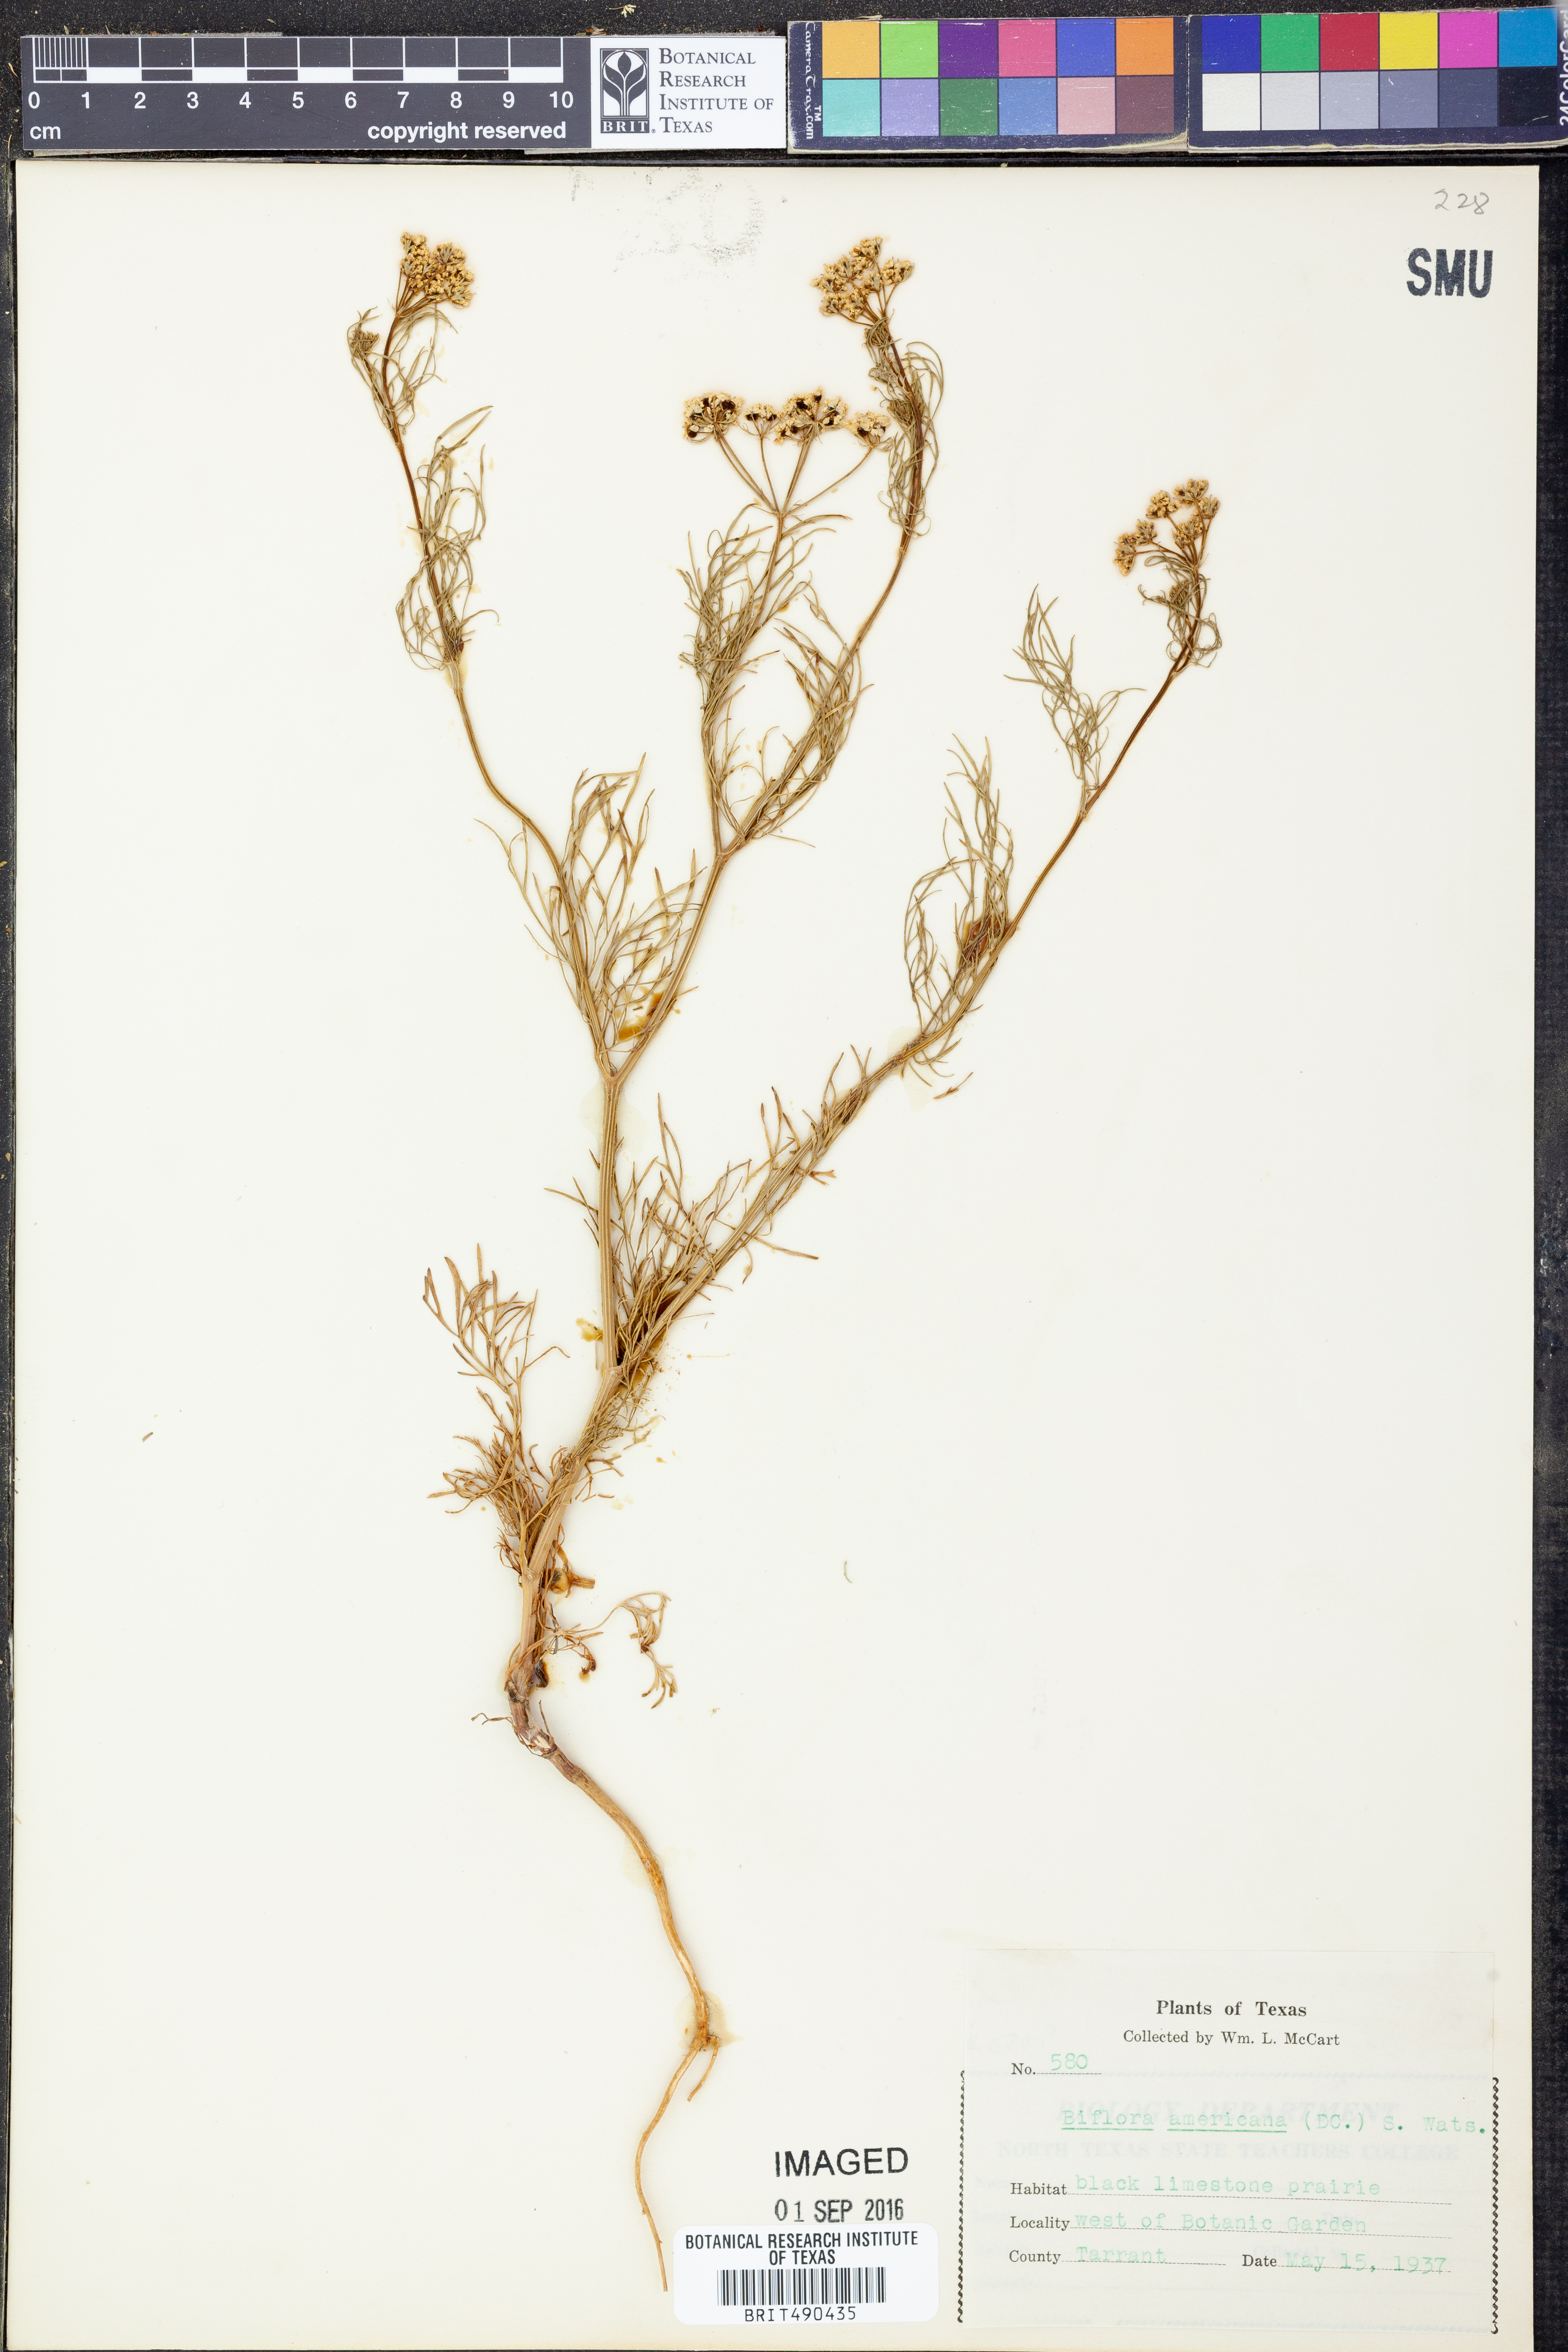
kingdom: Plantae
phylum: Tracheophyta
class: Magnoliopsida
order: Apiales
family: Apiaceae
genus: Atrema
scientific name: Atrema americanum
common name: Prairie-bishop
